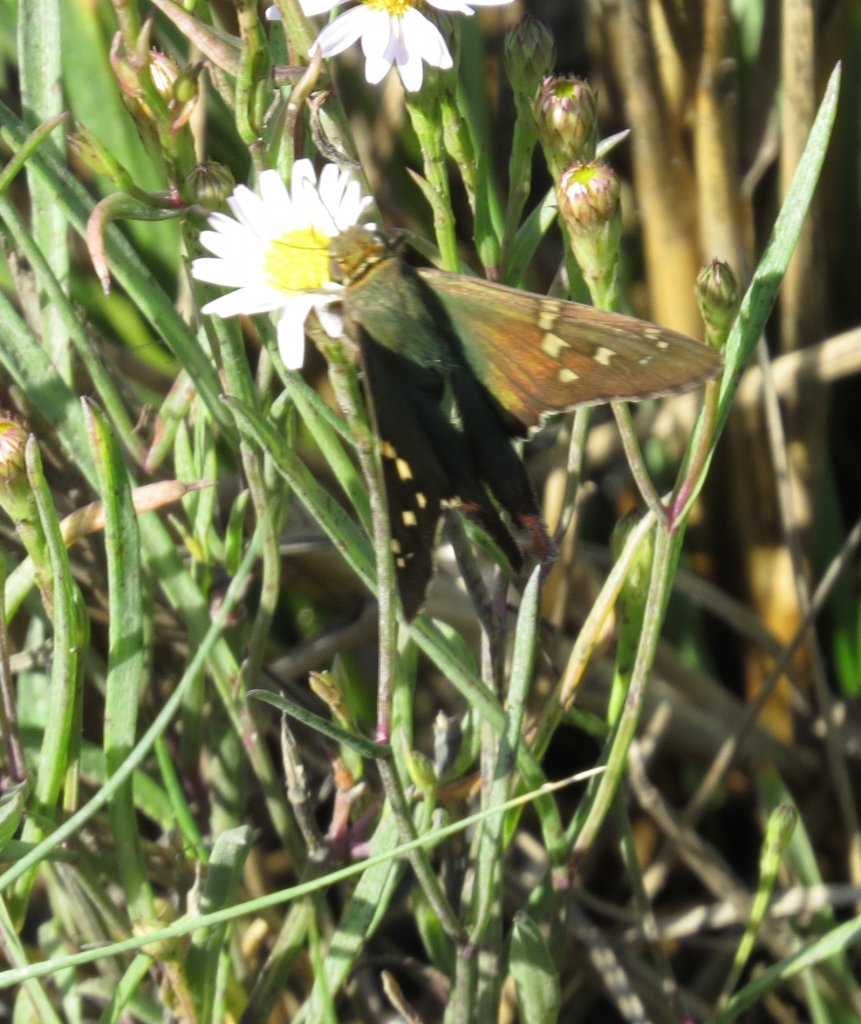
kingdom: Animalia
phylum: Arthropoda
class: Insecta
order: Lepidoptera
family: Hesperiidae
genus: Urbanus
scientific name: Urbanus proteus
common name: Long-tailed Skipper
